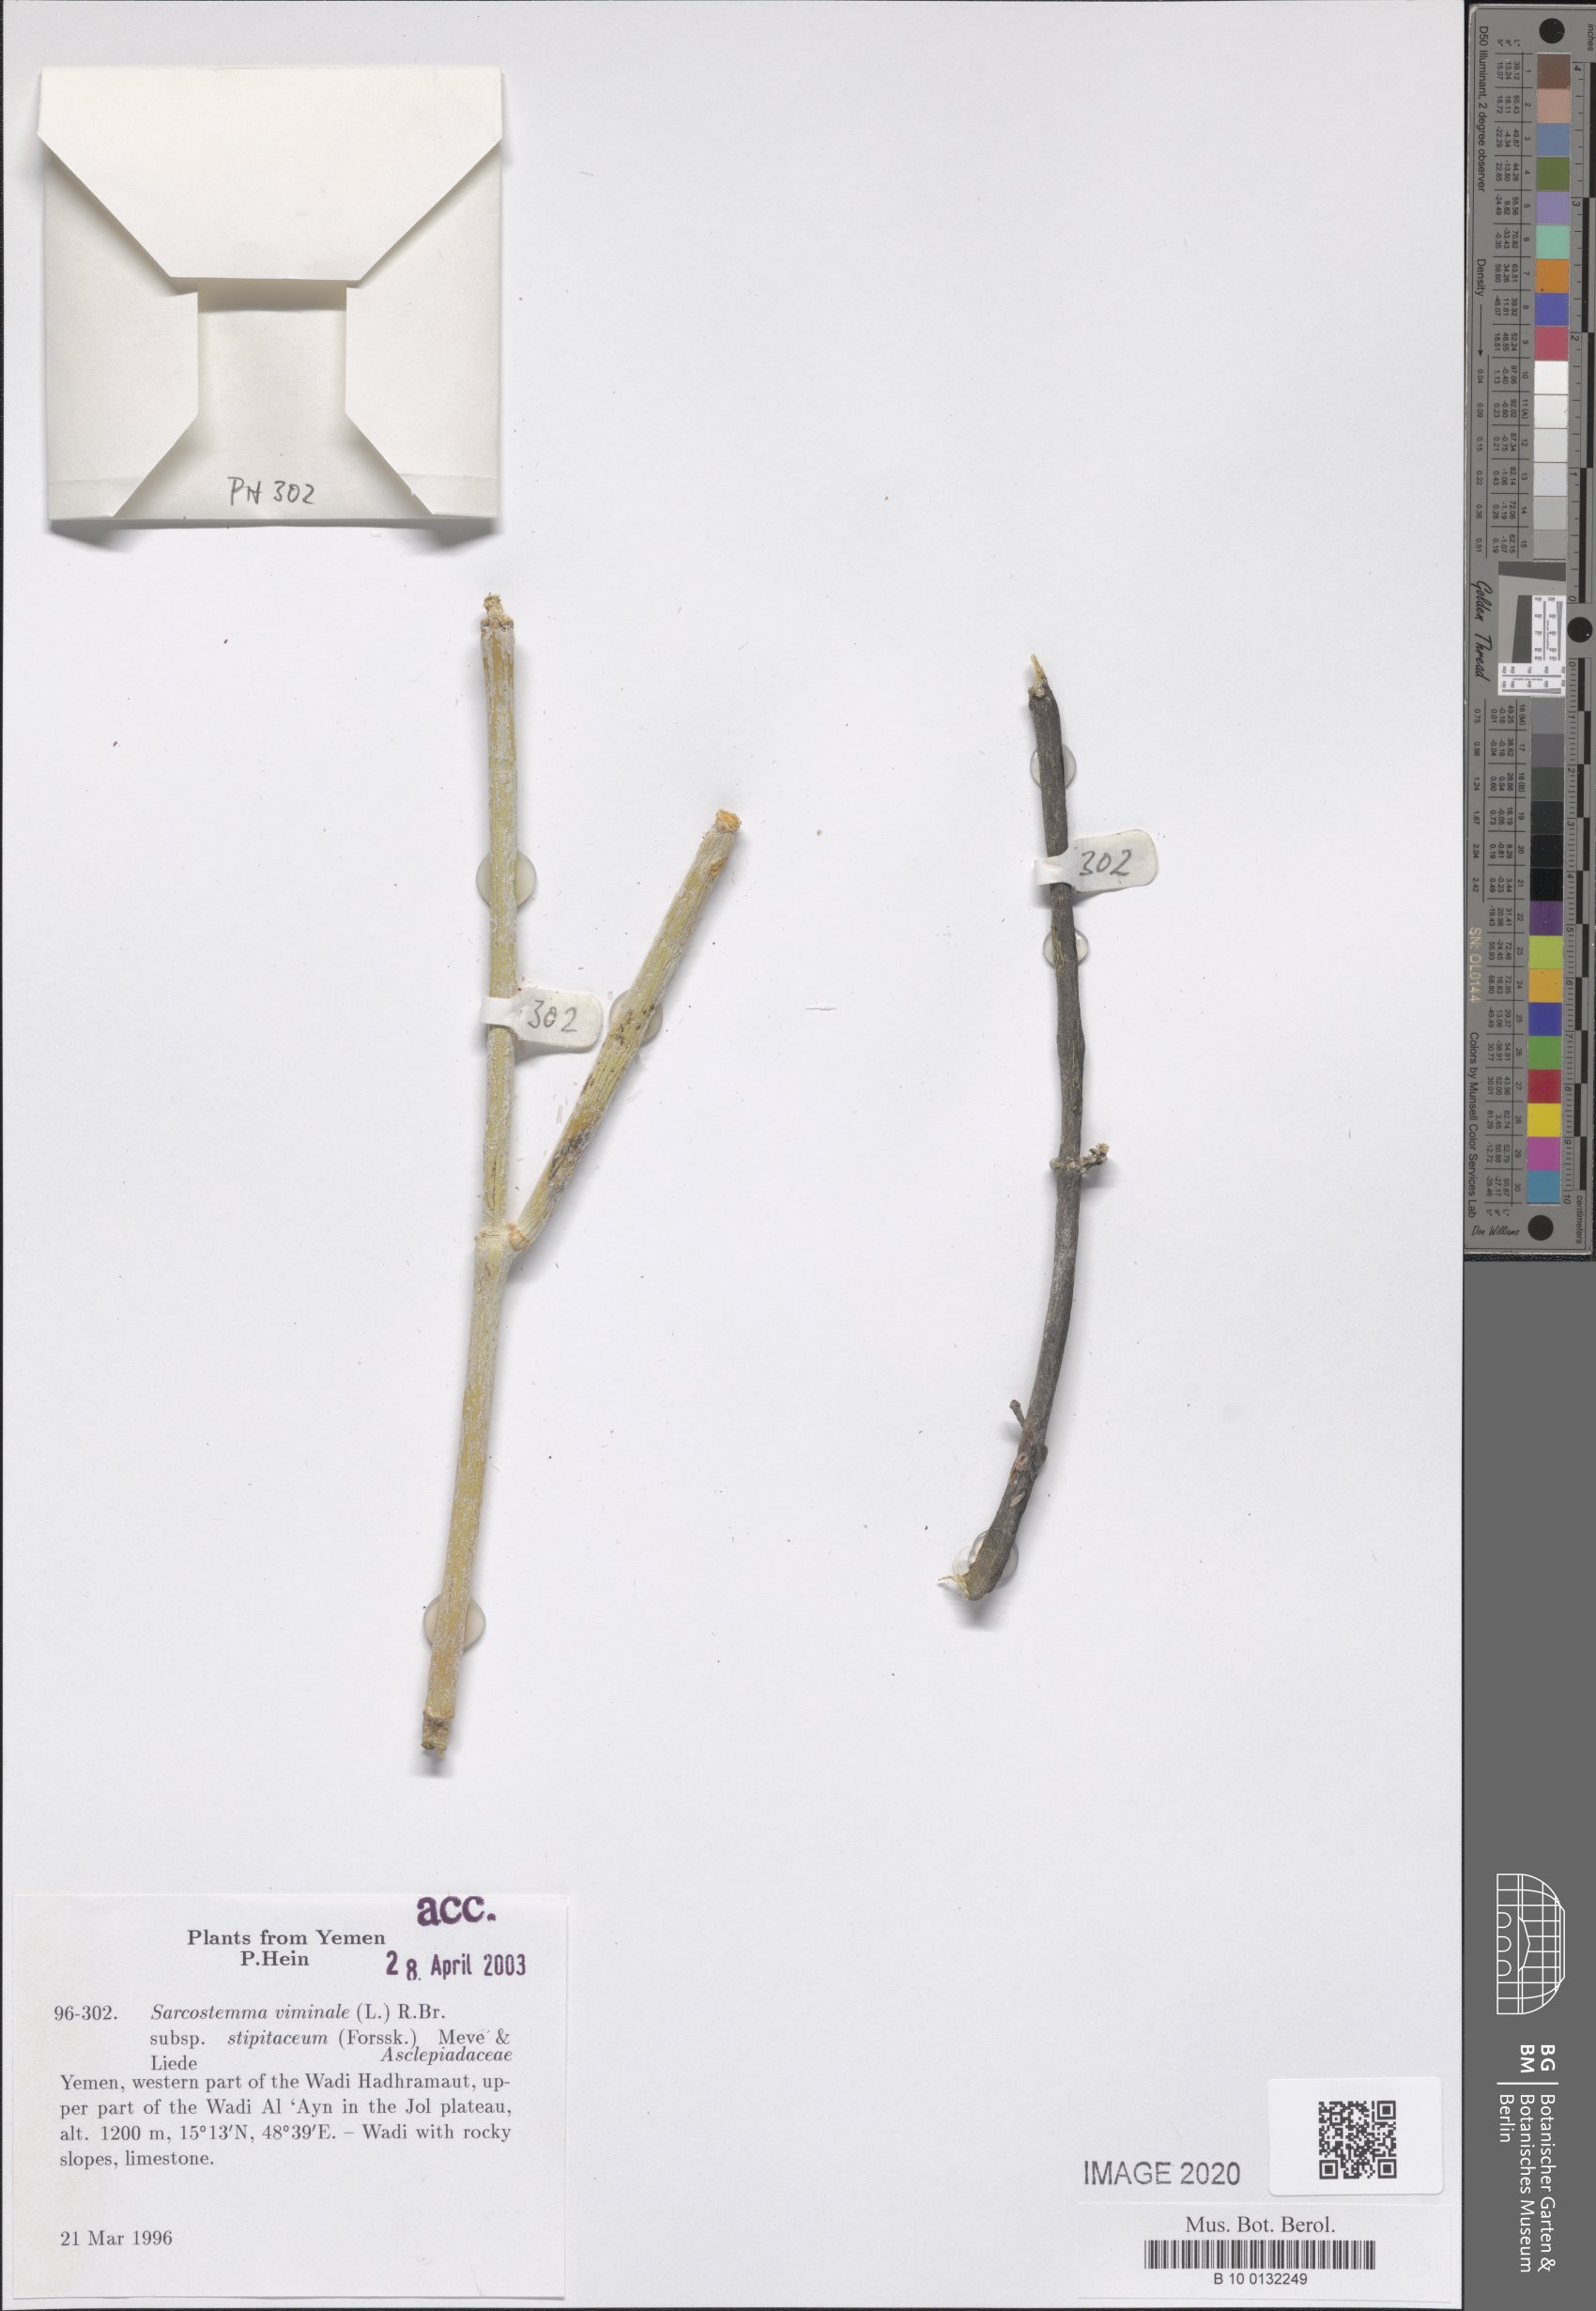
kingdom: Plantae
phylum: Tracheophyta
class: Magnoliopsida
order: Gentianales
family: Apocynaceae
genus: Cynanchum
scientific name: Cynanchum viminale
